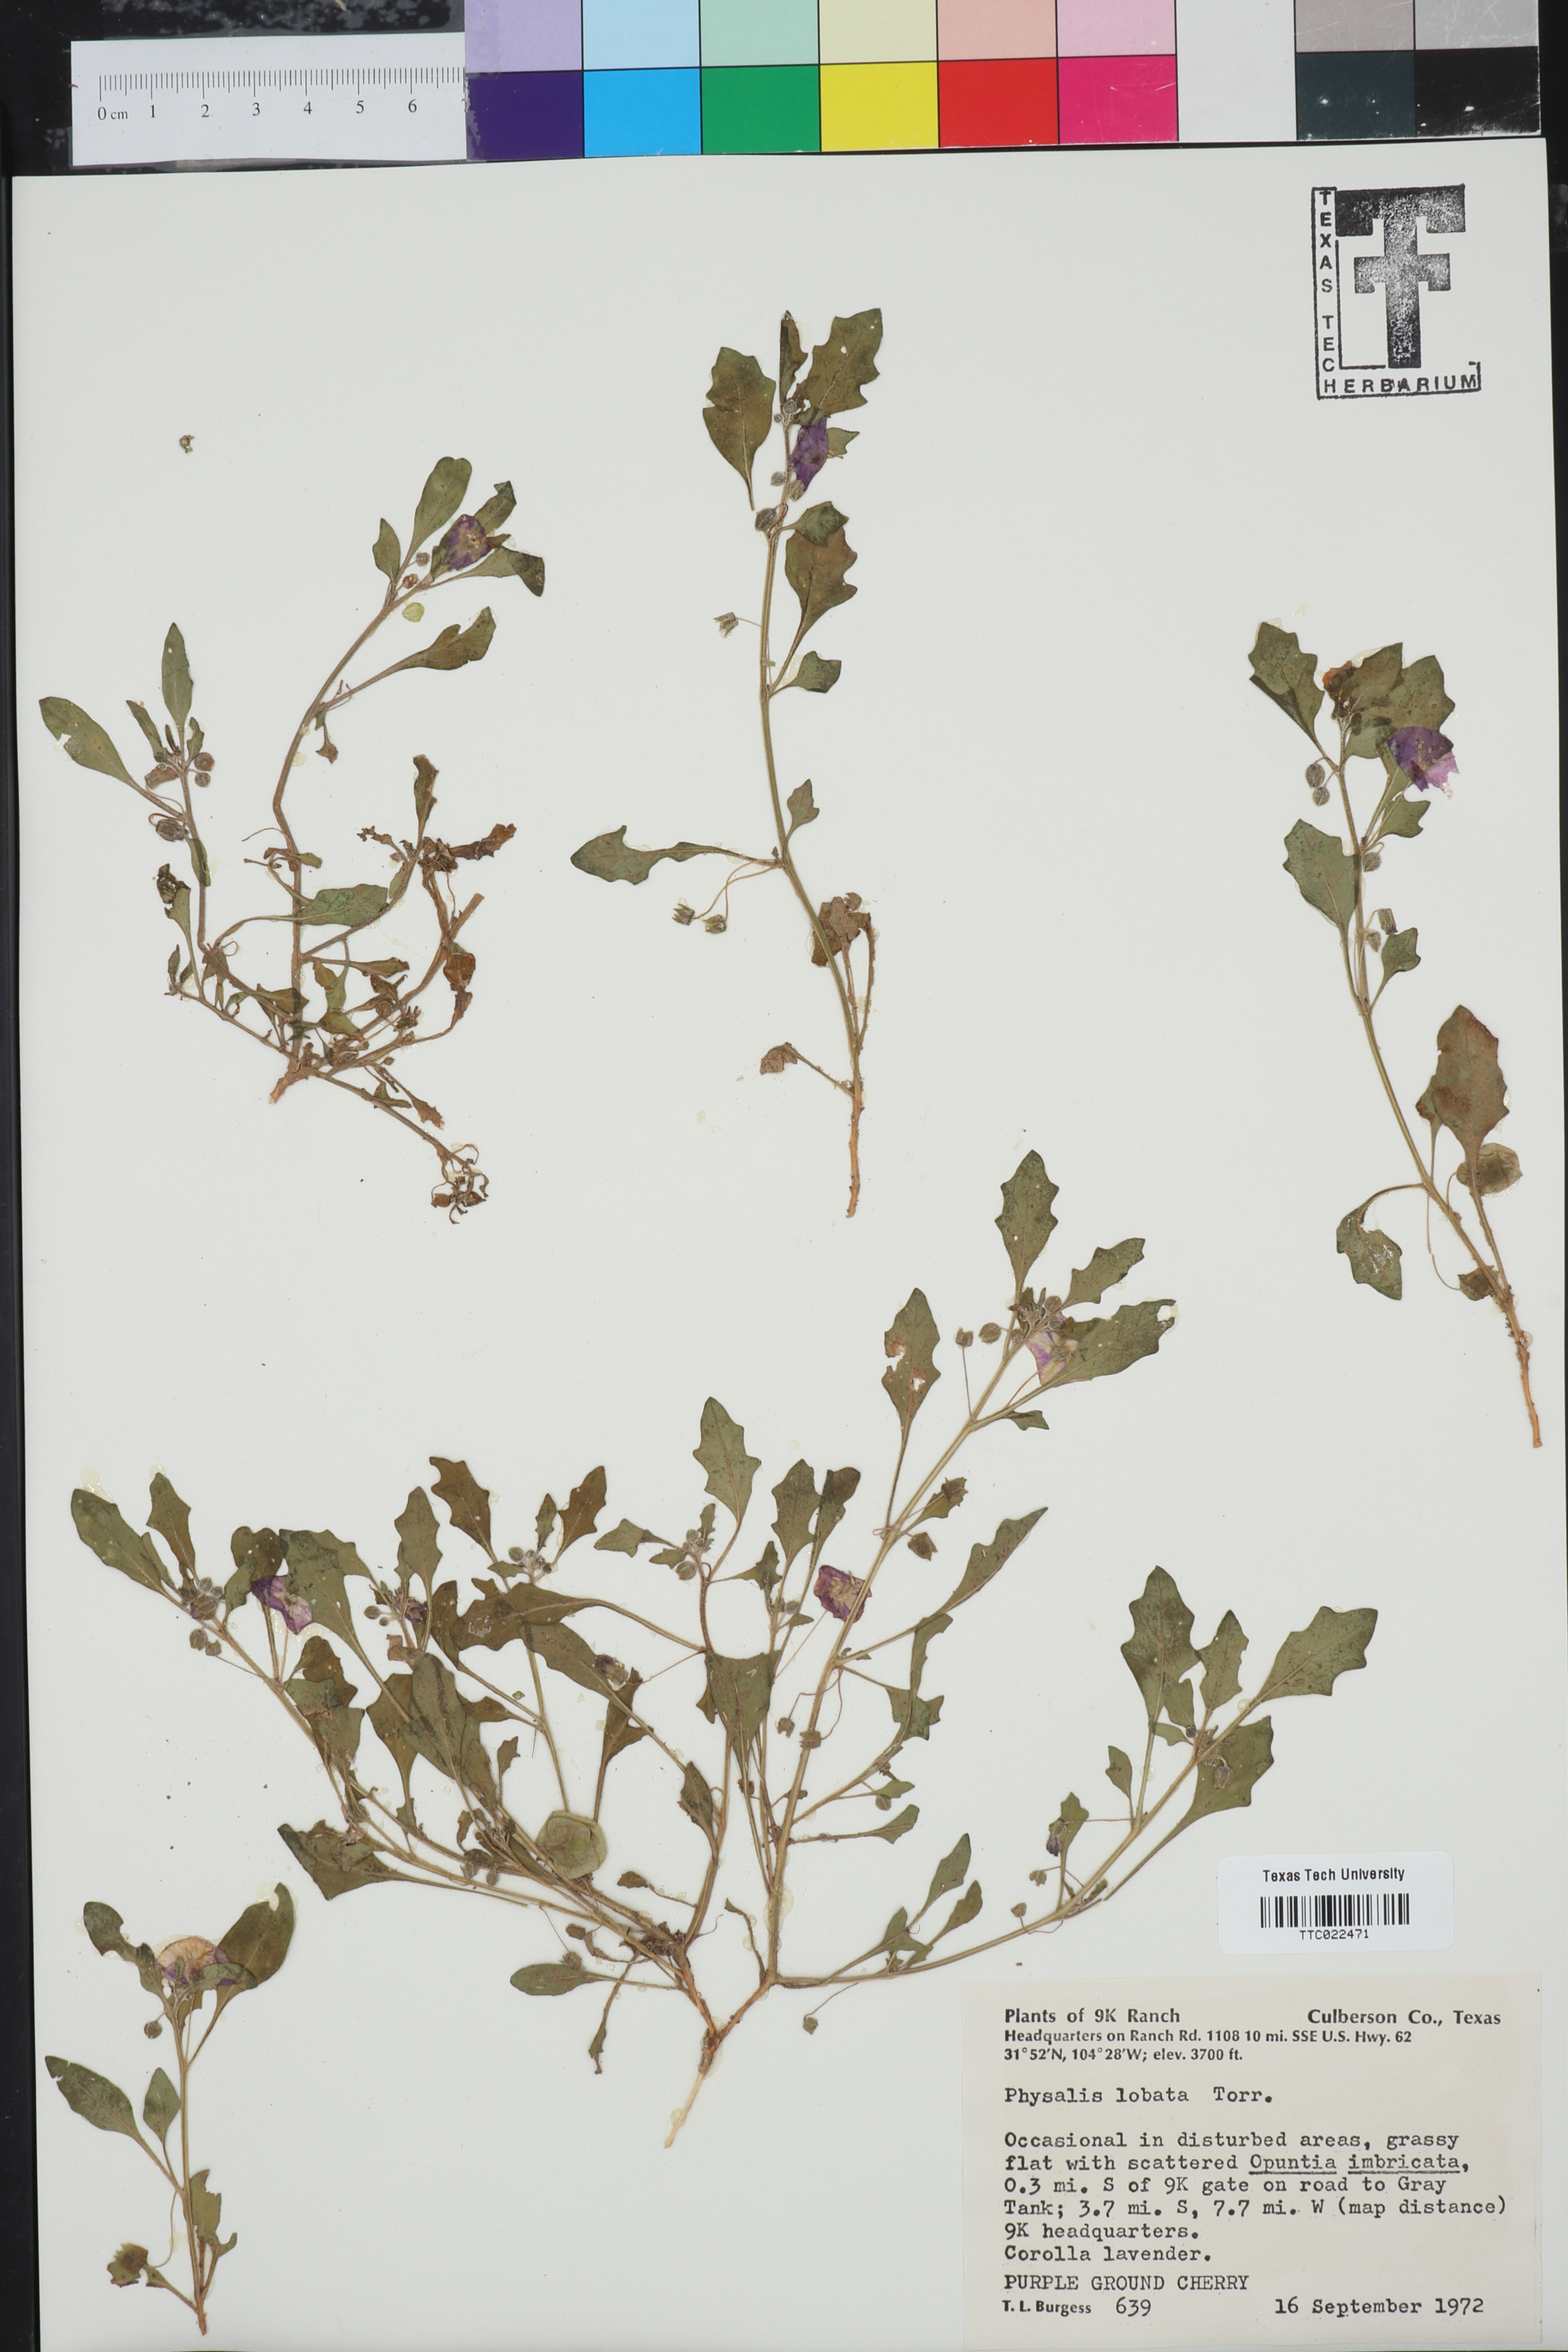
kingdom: Plantae
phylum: Tracheophyta
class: Magnoliopsida
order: Solanales
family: Solanaceae
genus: Quincula
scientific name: Quincula lobata
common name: Purple-ground-cherry
